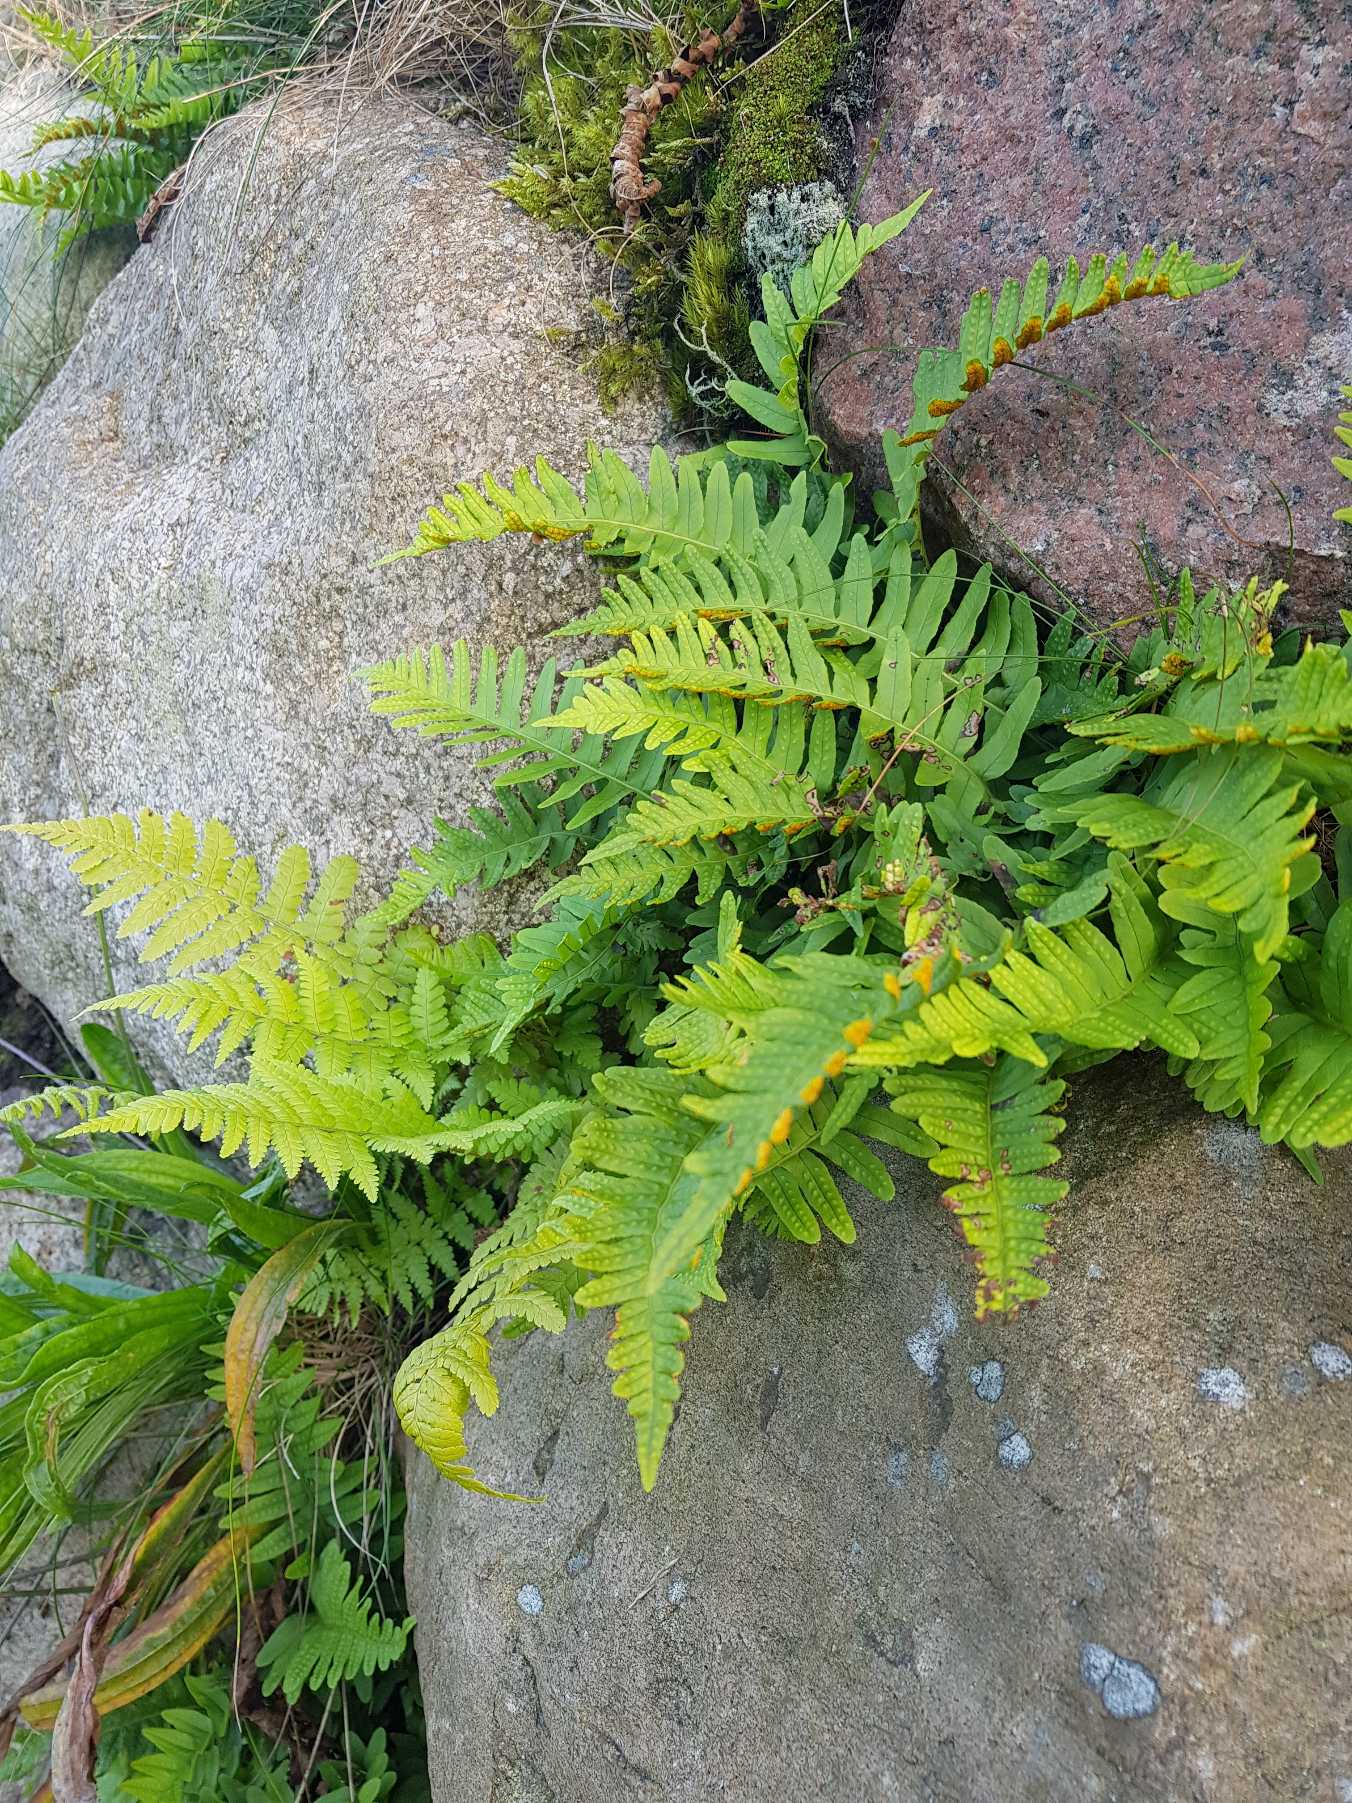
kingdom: Plantae
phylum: Tracheophyta
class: Polypodiopsida
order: Polypodiales
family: Polypodiaceae
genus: Polypodium
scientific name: Polypodium vulgare
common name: Almindelig engelsød
